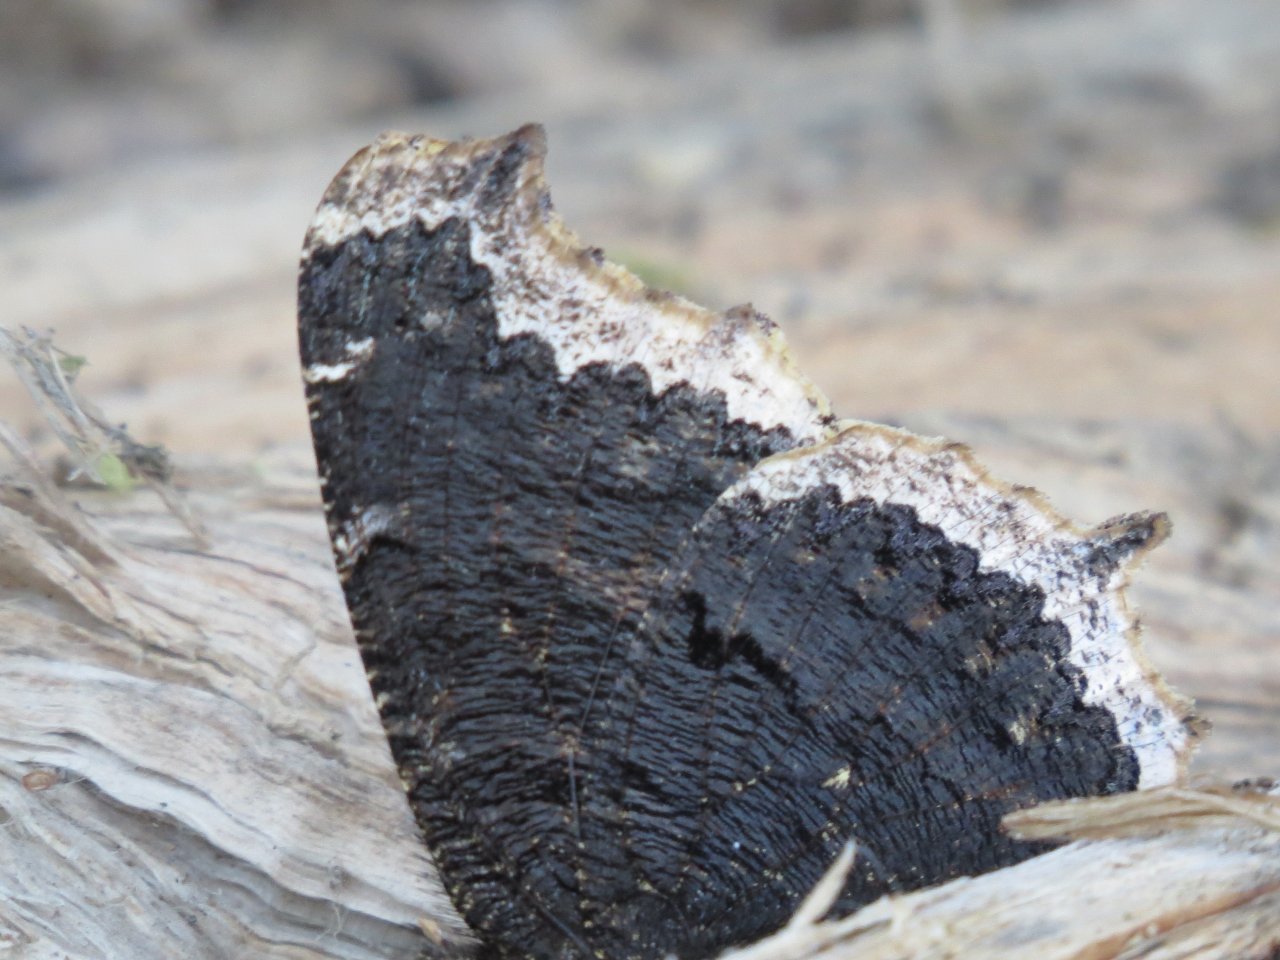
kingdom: Animalia
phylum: Arthropoda
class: Insecta
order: Lepidoptera
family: Nymphalidae
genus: Nymphalis
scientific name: Nymphalis antiopa
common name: Mourning Cloak
